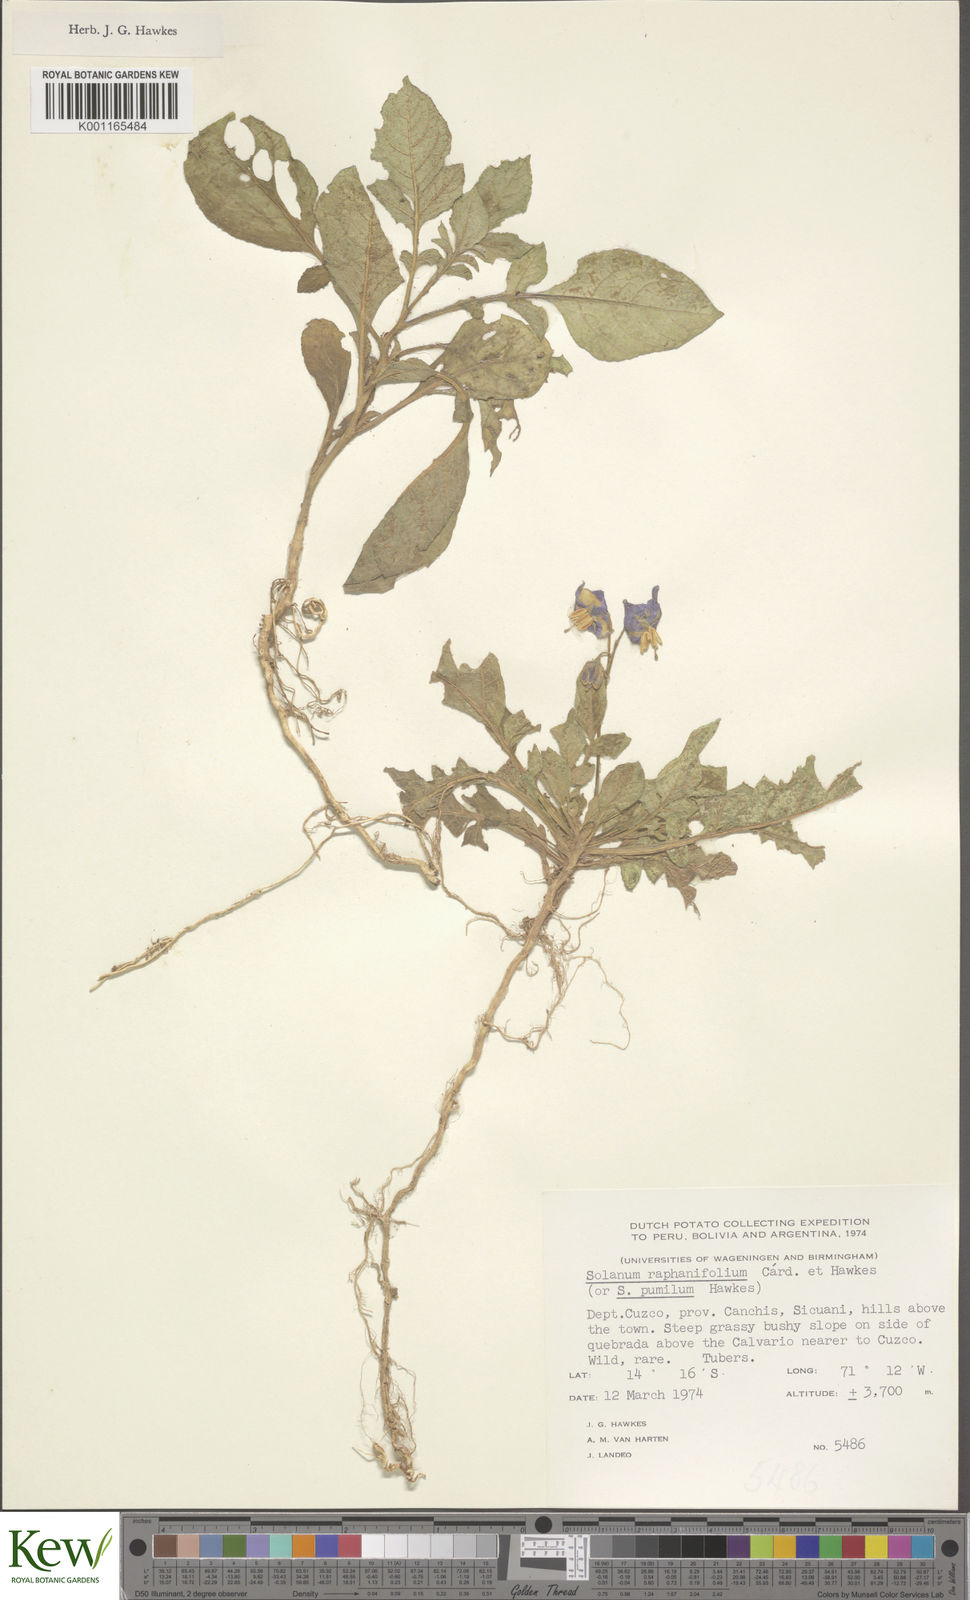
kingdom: Plantae
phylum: Tracheophyta
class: Magnoliopsida
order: Solanales
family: Solanaceae
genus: Solanum
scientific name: Solanum raphanifolium
